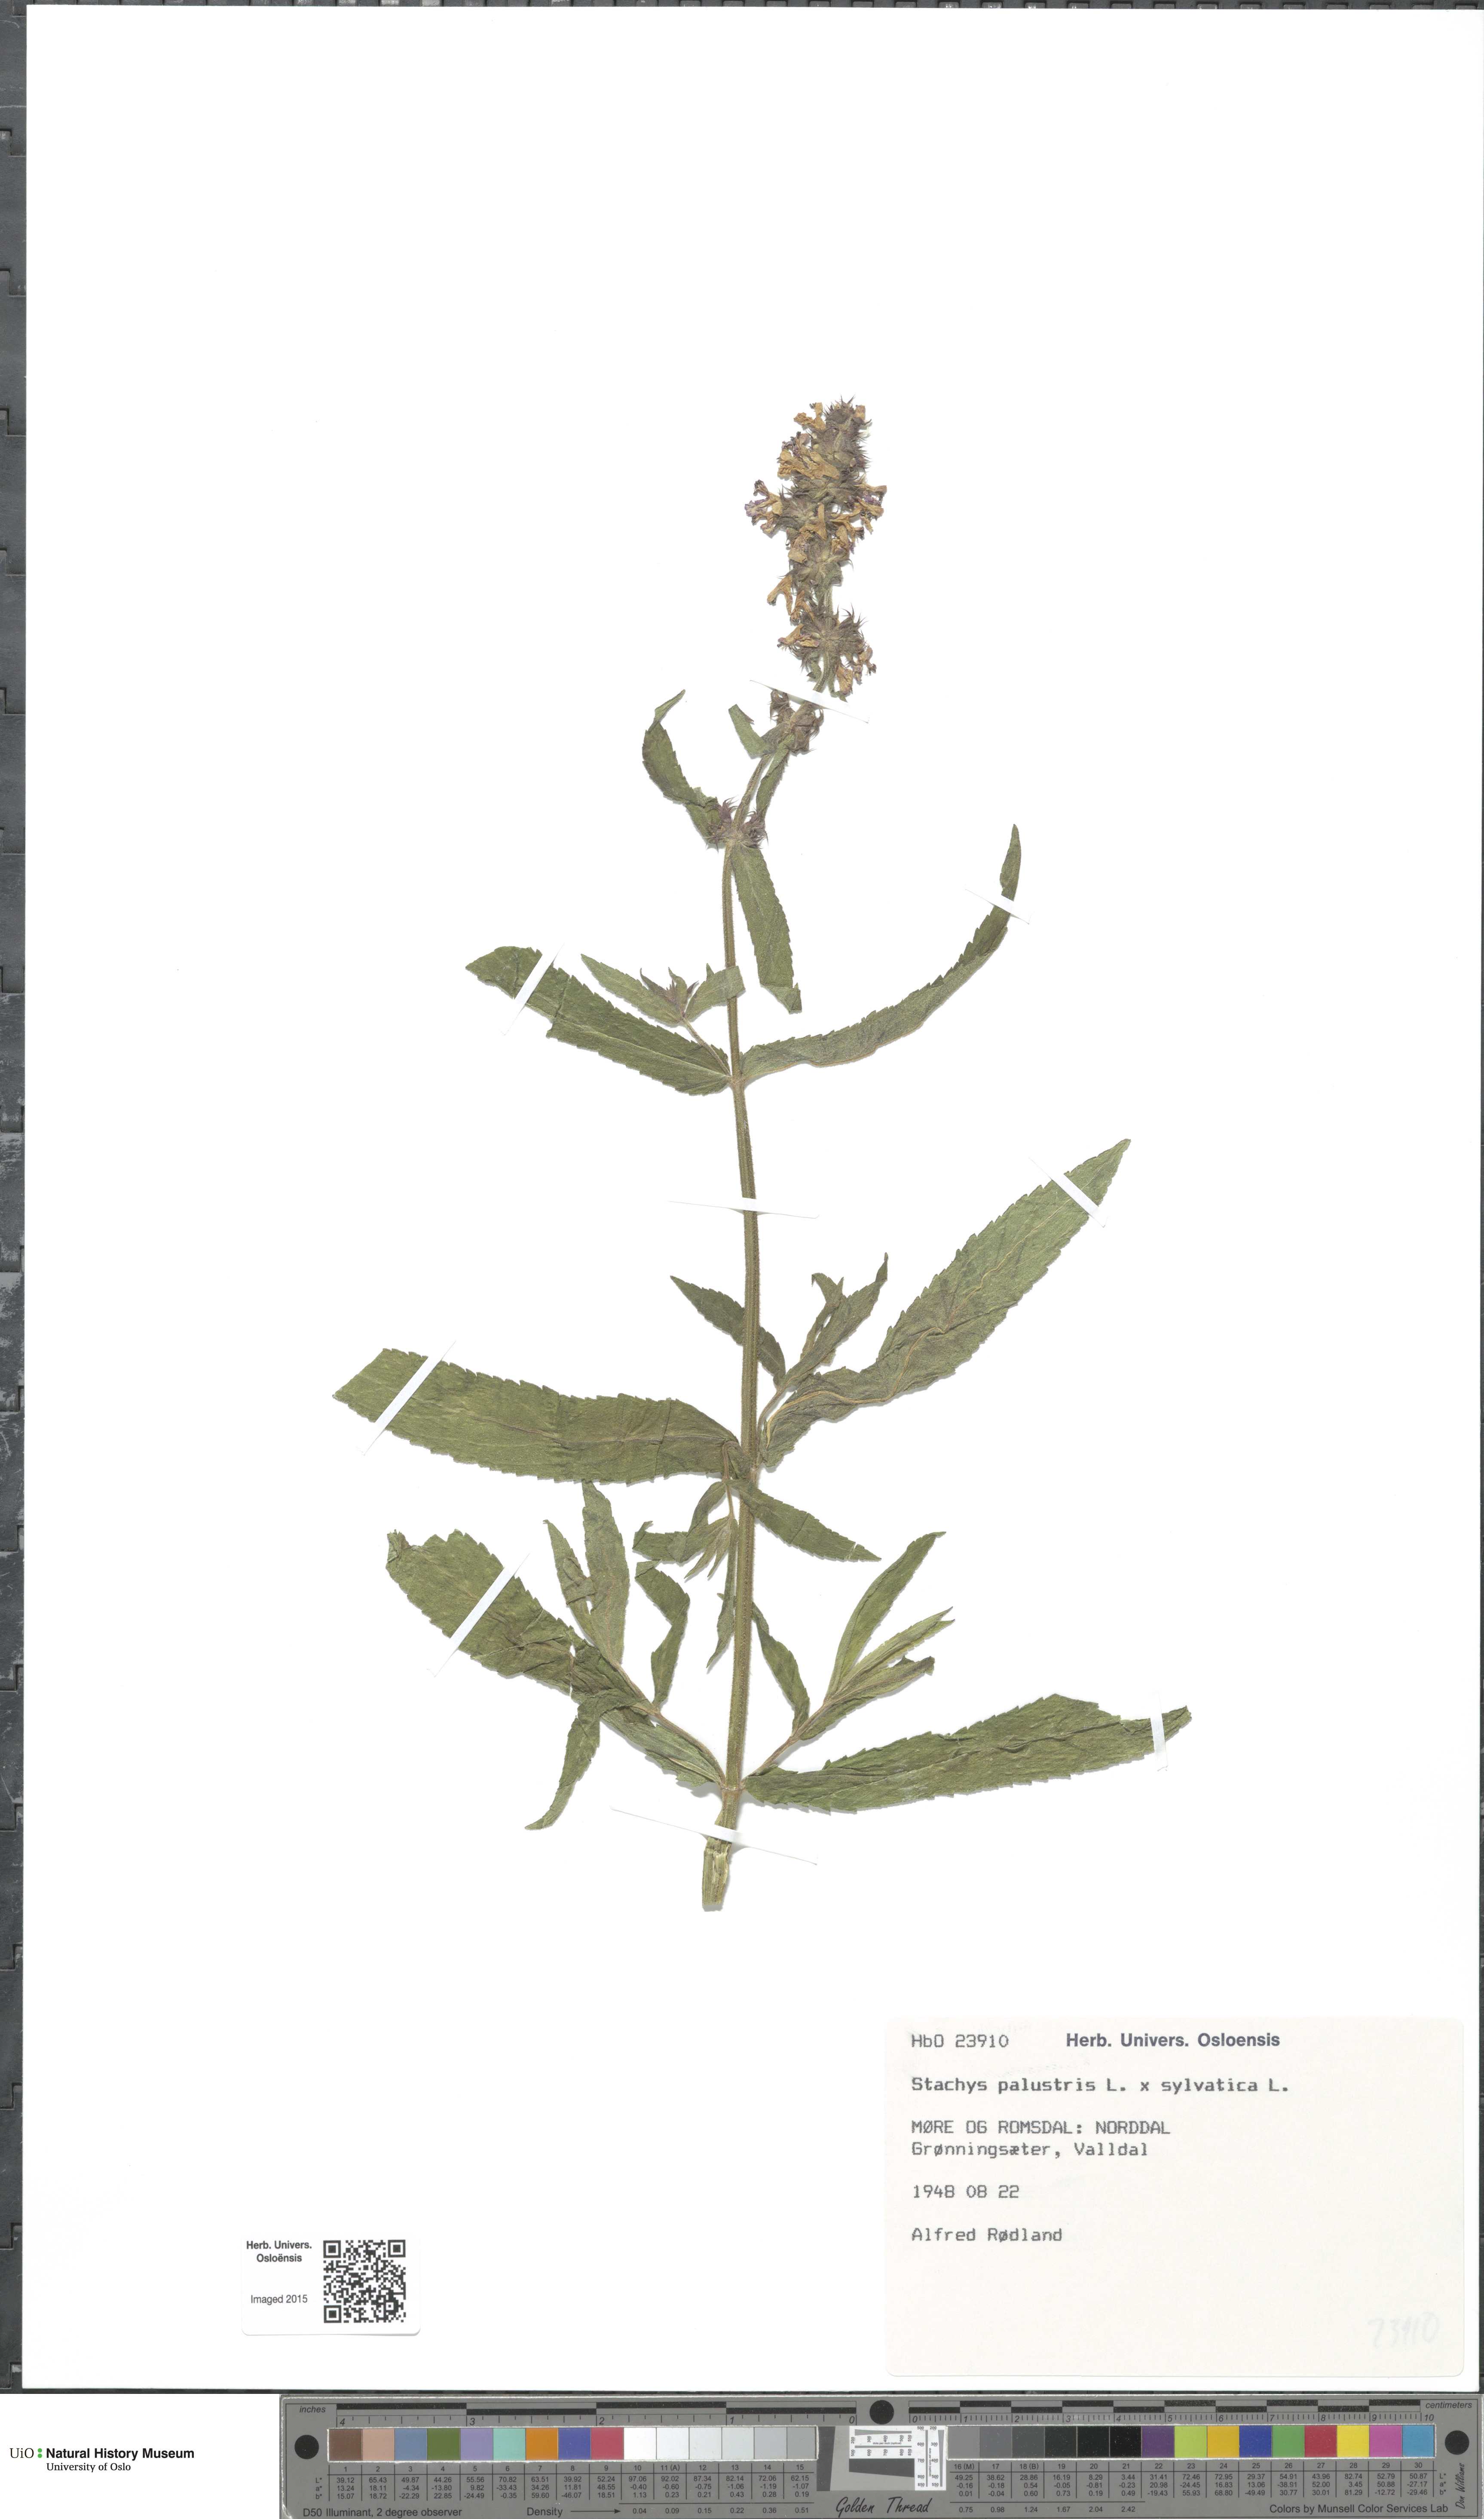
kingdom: Plantae
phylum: Tracheophyta
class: Magnoliopsida
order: Lamiales
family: Lamiaceae
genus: Stachys
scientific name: Stachys
